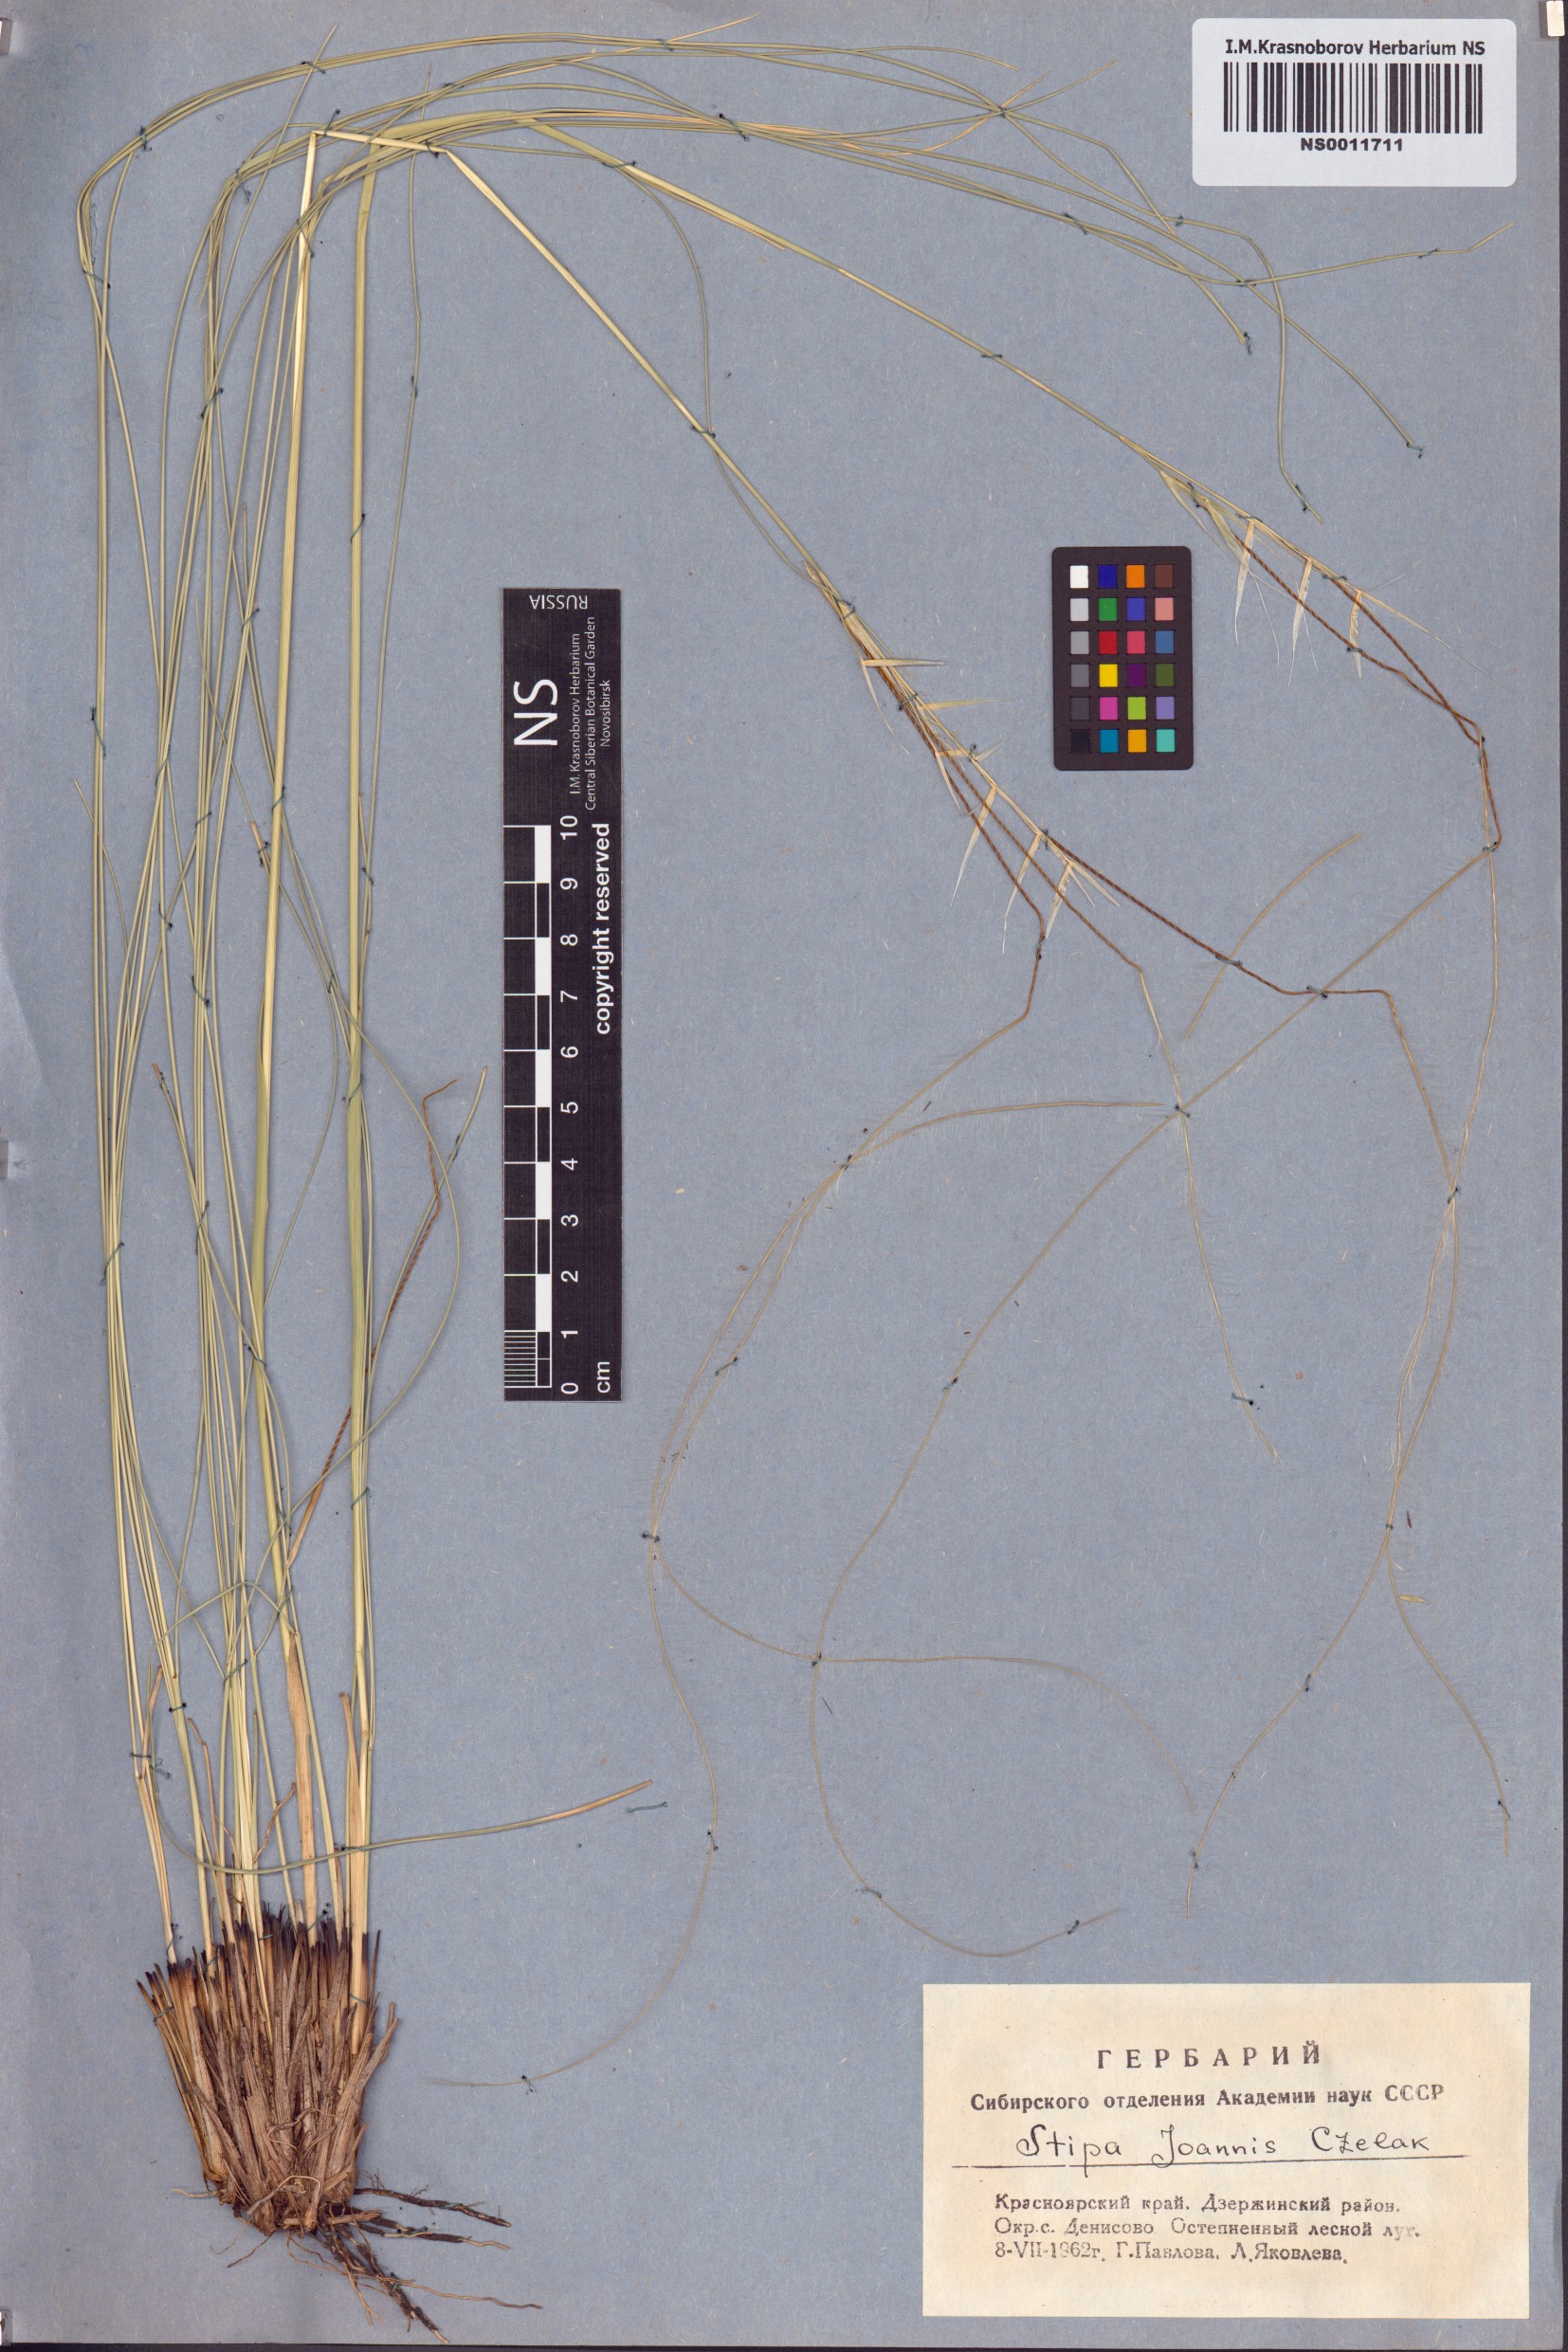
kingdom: Plantae
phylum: Tracheophyta
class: Liliopsida
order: Poales
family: Poaceae
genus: Stipa
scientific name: Stipa pennata
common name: European feather grass
